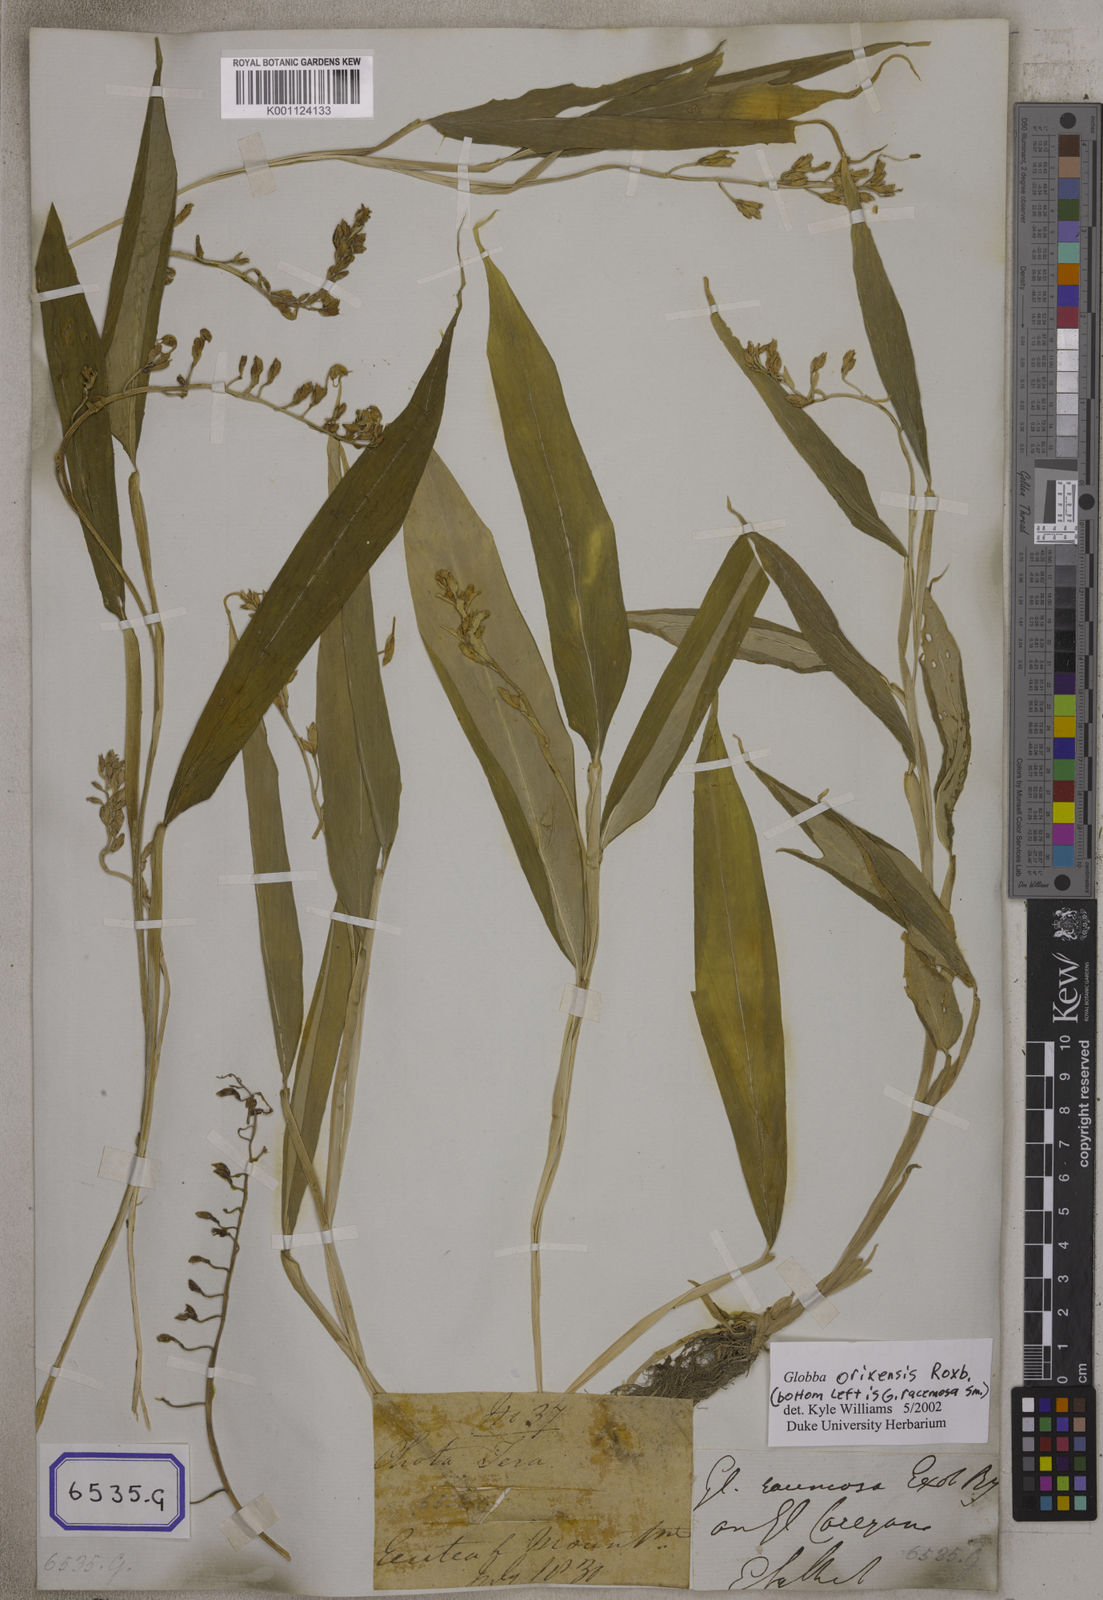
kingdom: Plantae
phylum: Tracheophyta
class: Liliopsida
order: Zingiberales
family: Zingiberaceae
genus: Globba
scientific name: Globba
